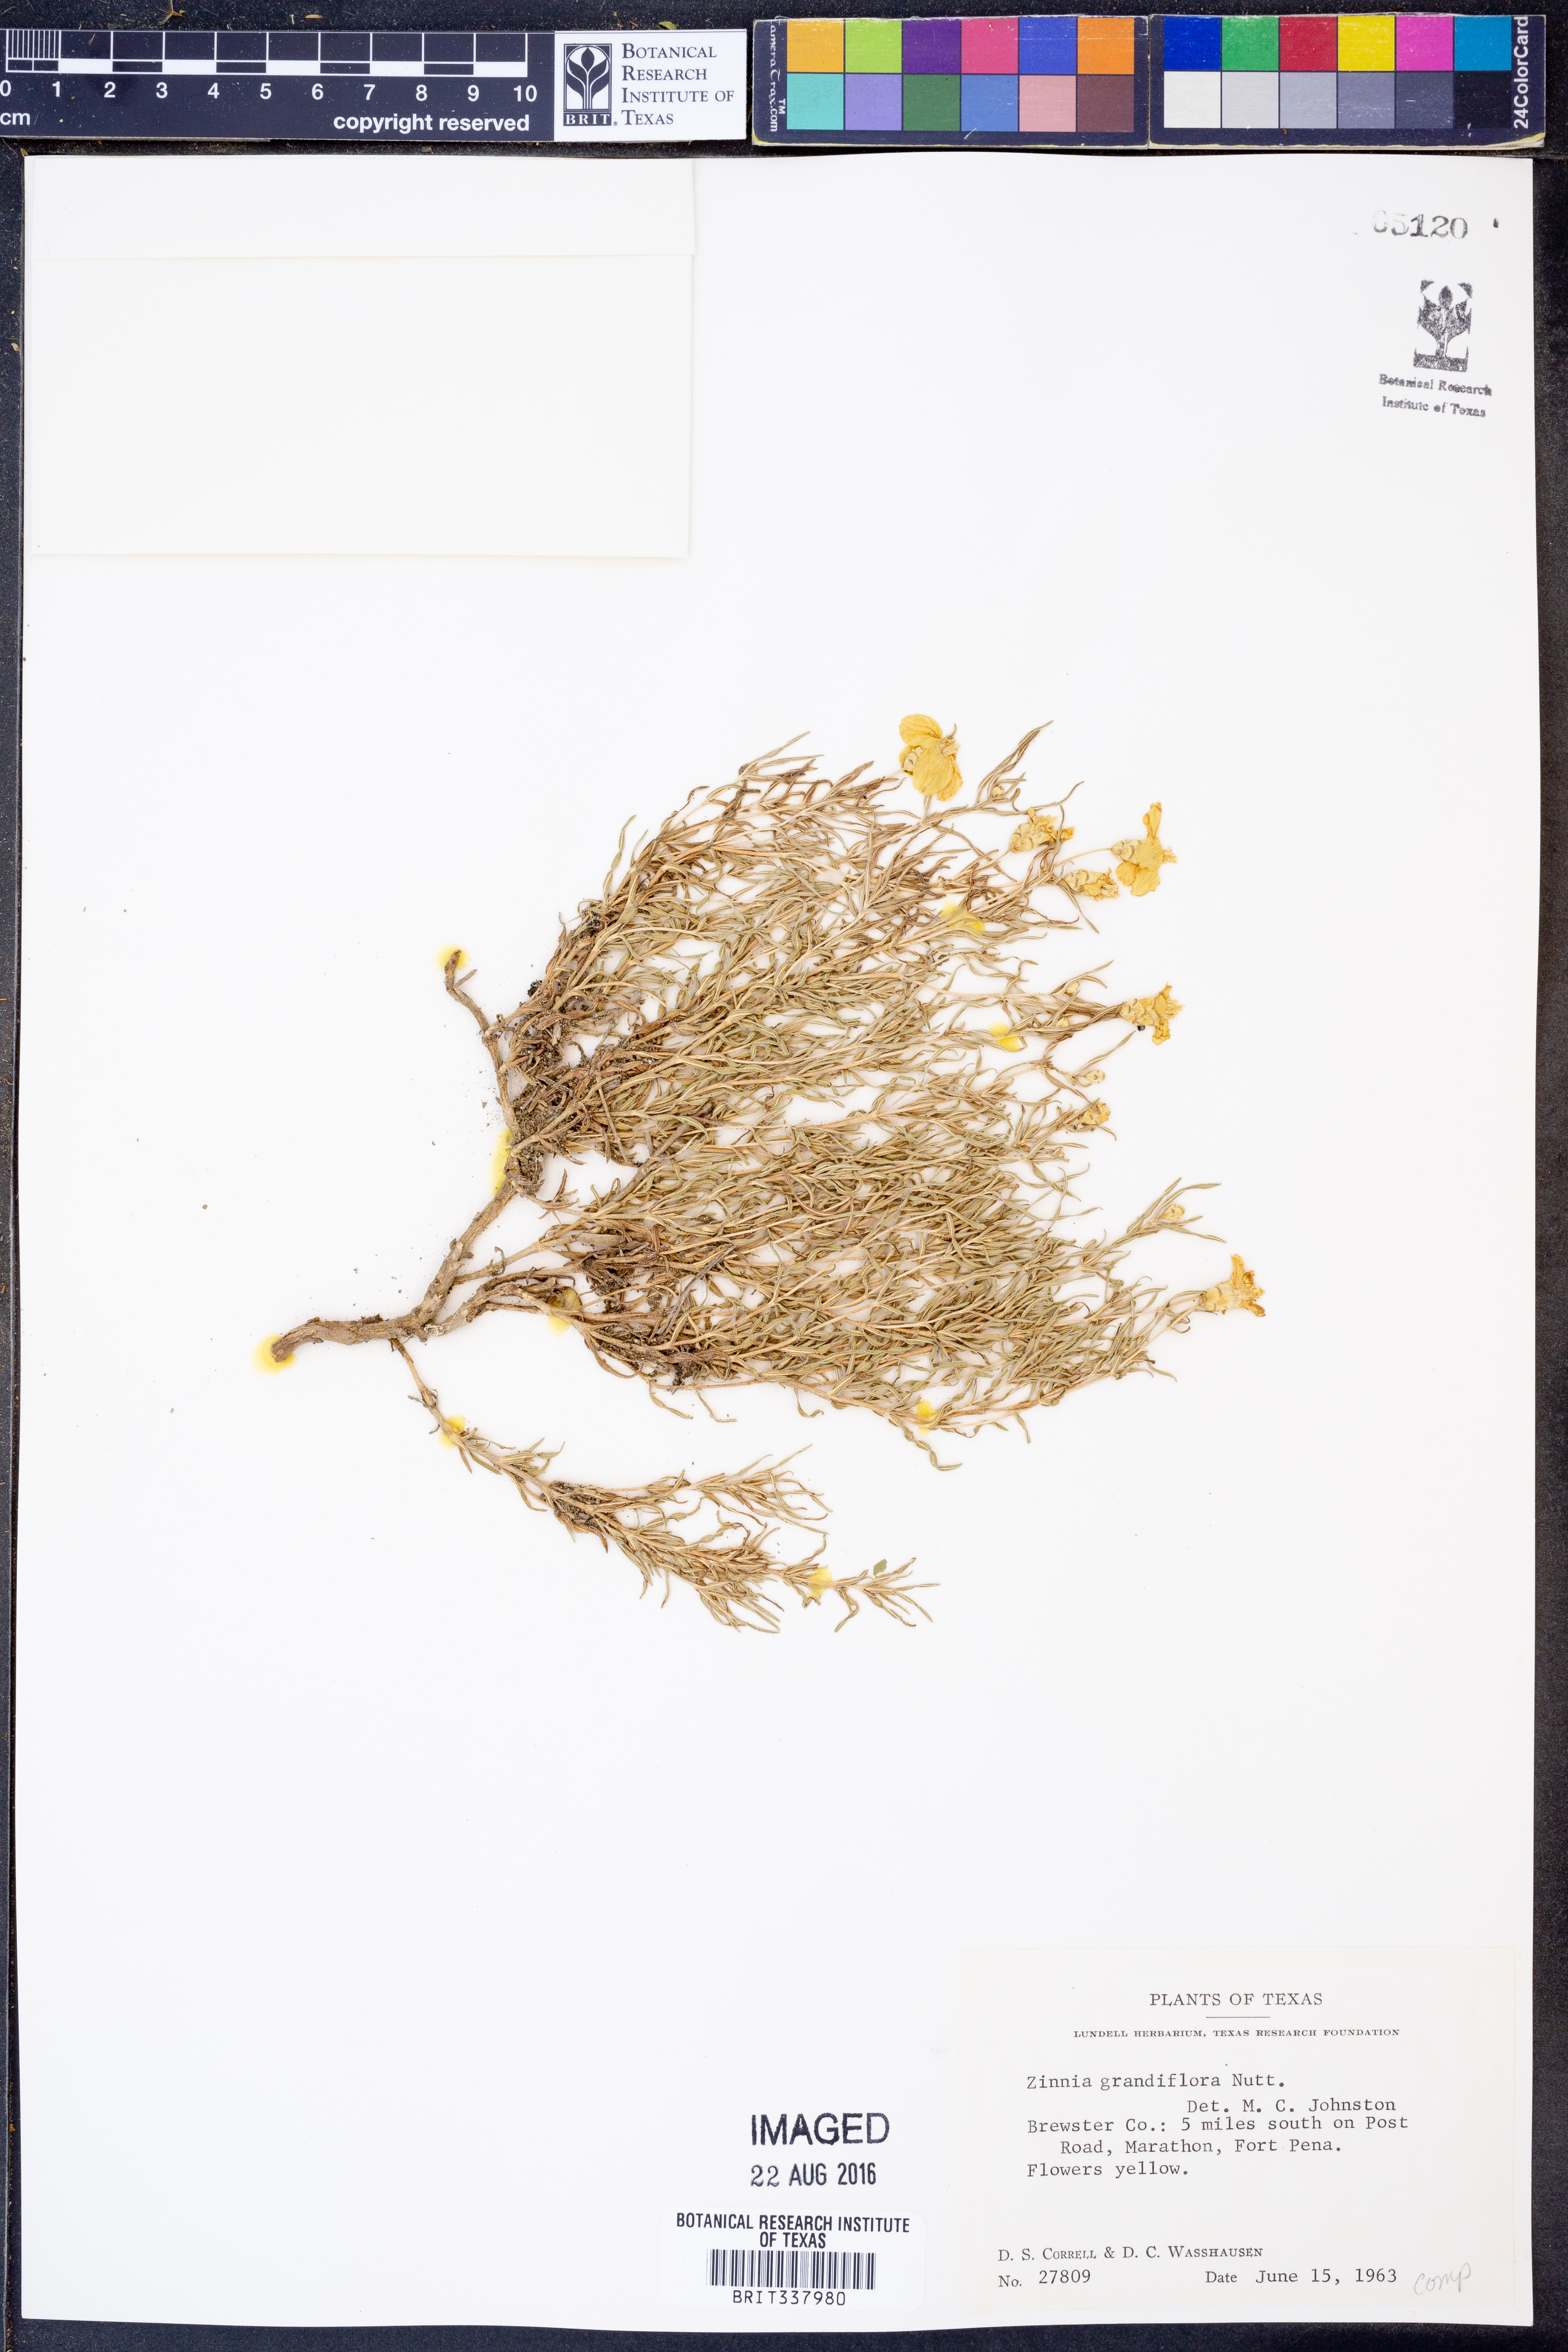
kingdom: Plantae
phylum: Tracheophyta
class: Magnoliopsida
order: Asterales
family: Asteraceae
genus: Zinnia
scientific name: Zinnia grandiflora
